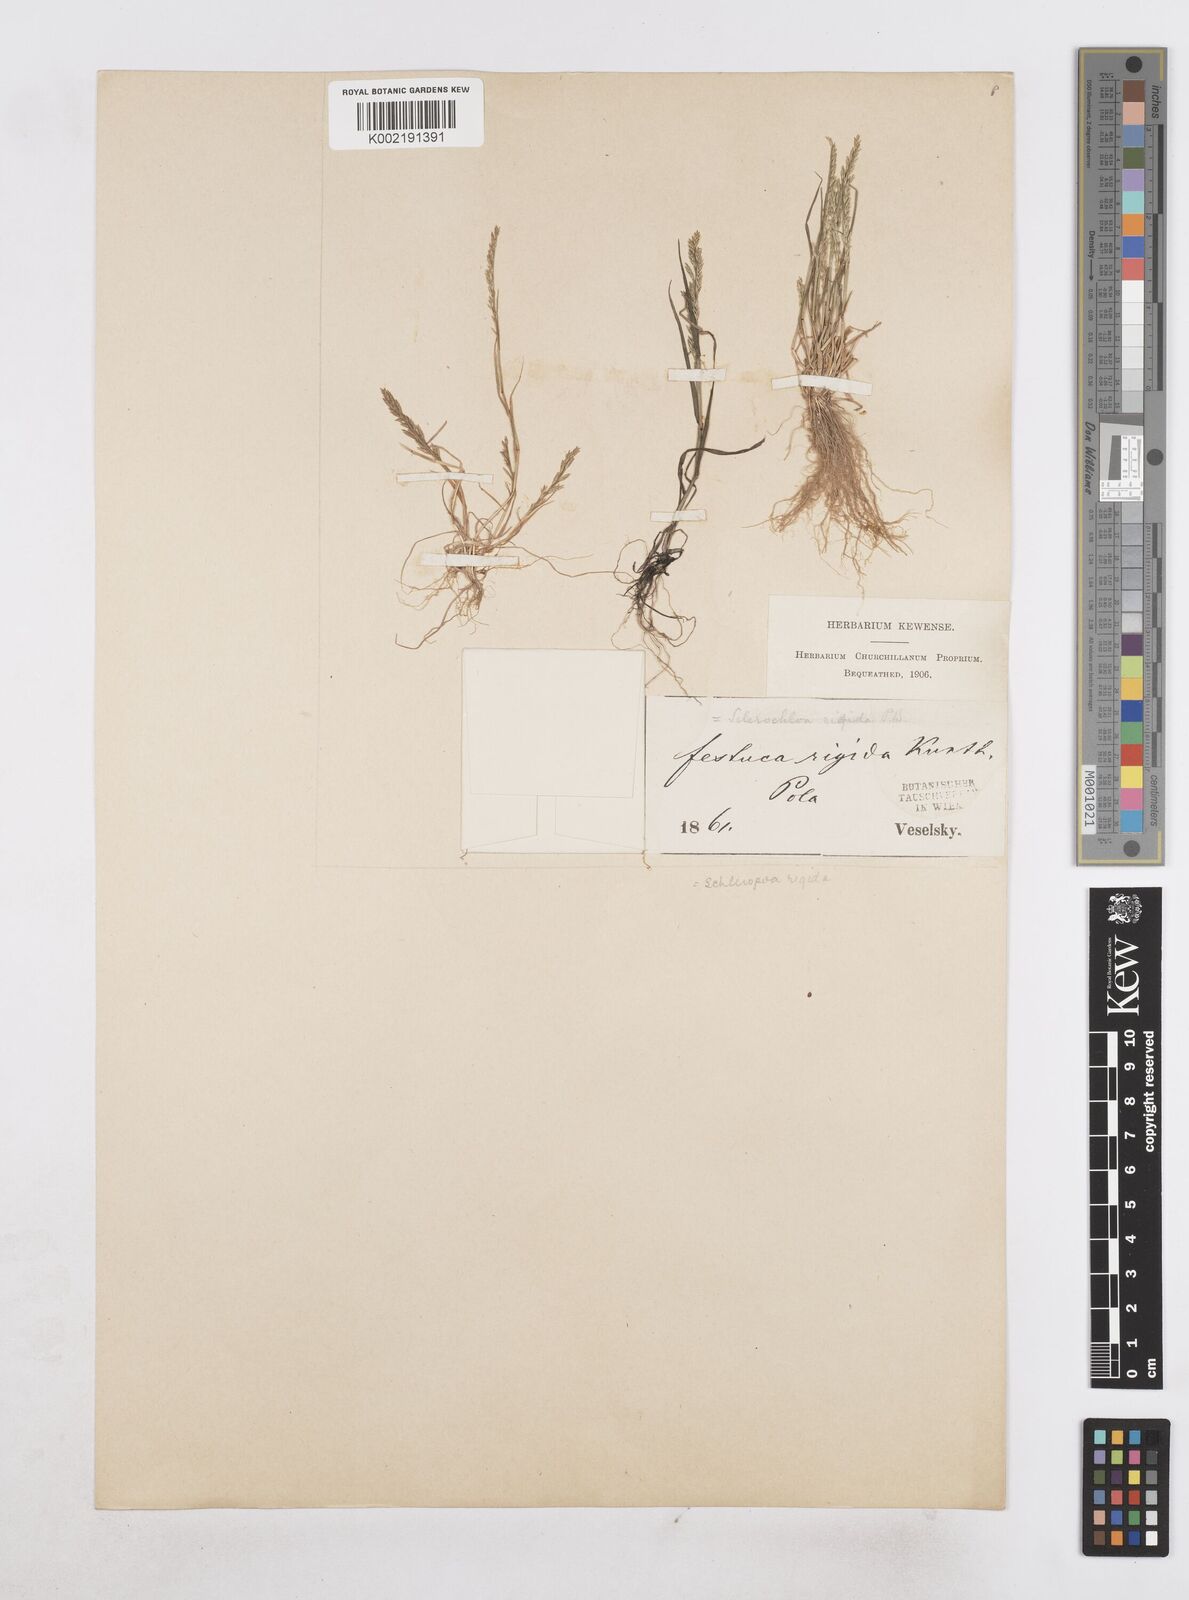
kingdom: Plantae
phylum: Tracheophyta
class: Liliopsida
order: Poales
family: Poaceae
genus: Catapodium
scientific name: Catapodium rigidum
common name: Fern-grass
